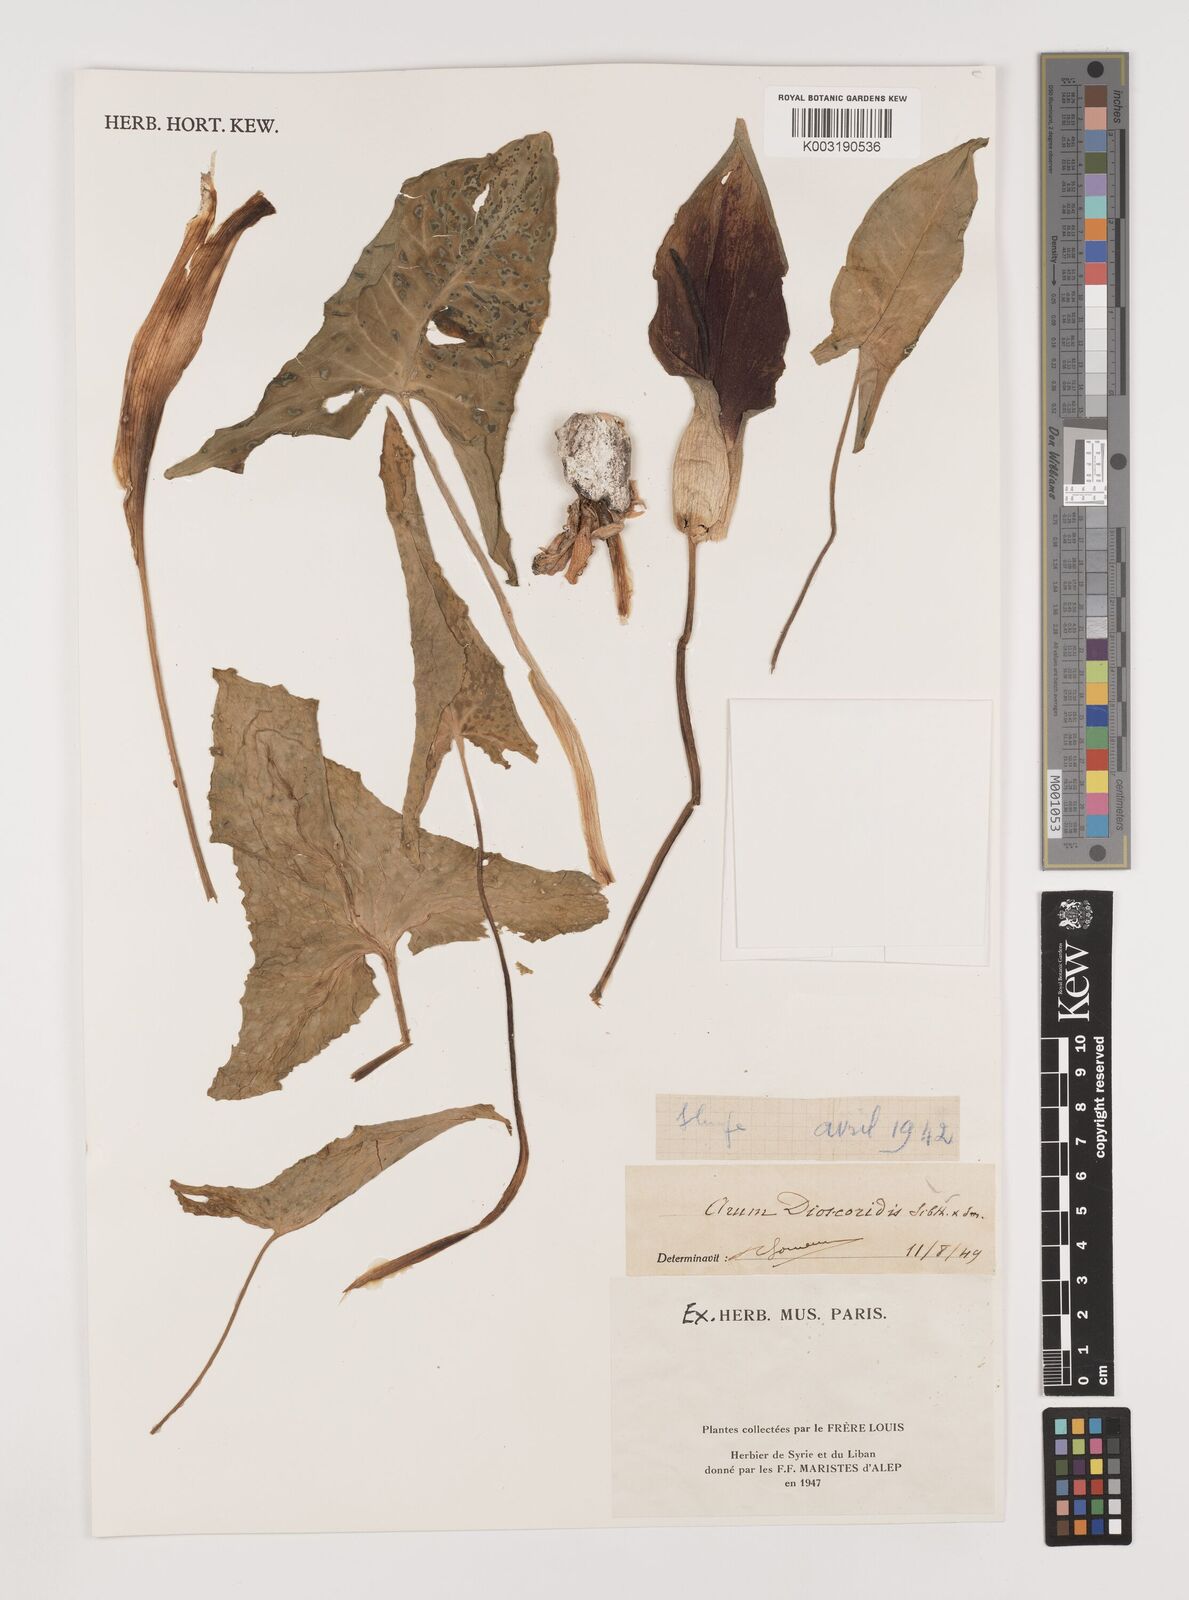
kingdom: Plantae
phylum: Tracheophyta
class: Liliopsida
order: Alismatales
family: Araceae
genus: Arum
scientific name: Arum dioscoridis
